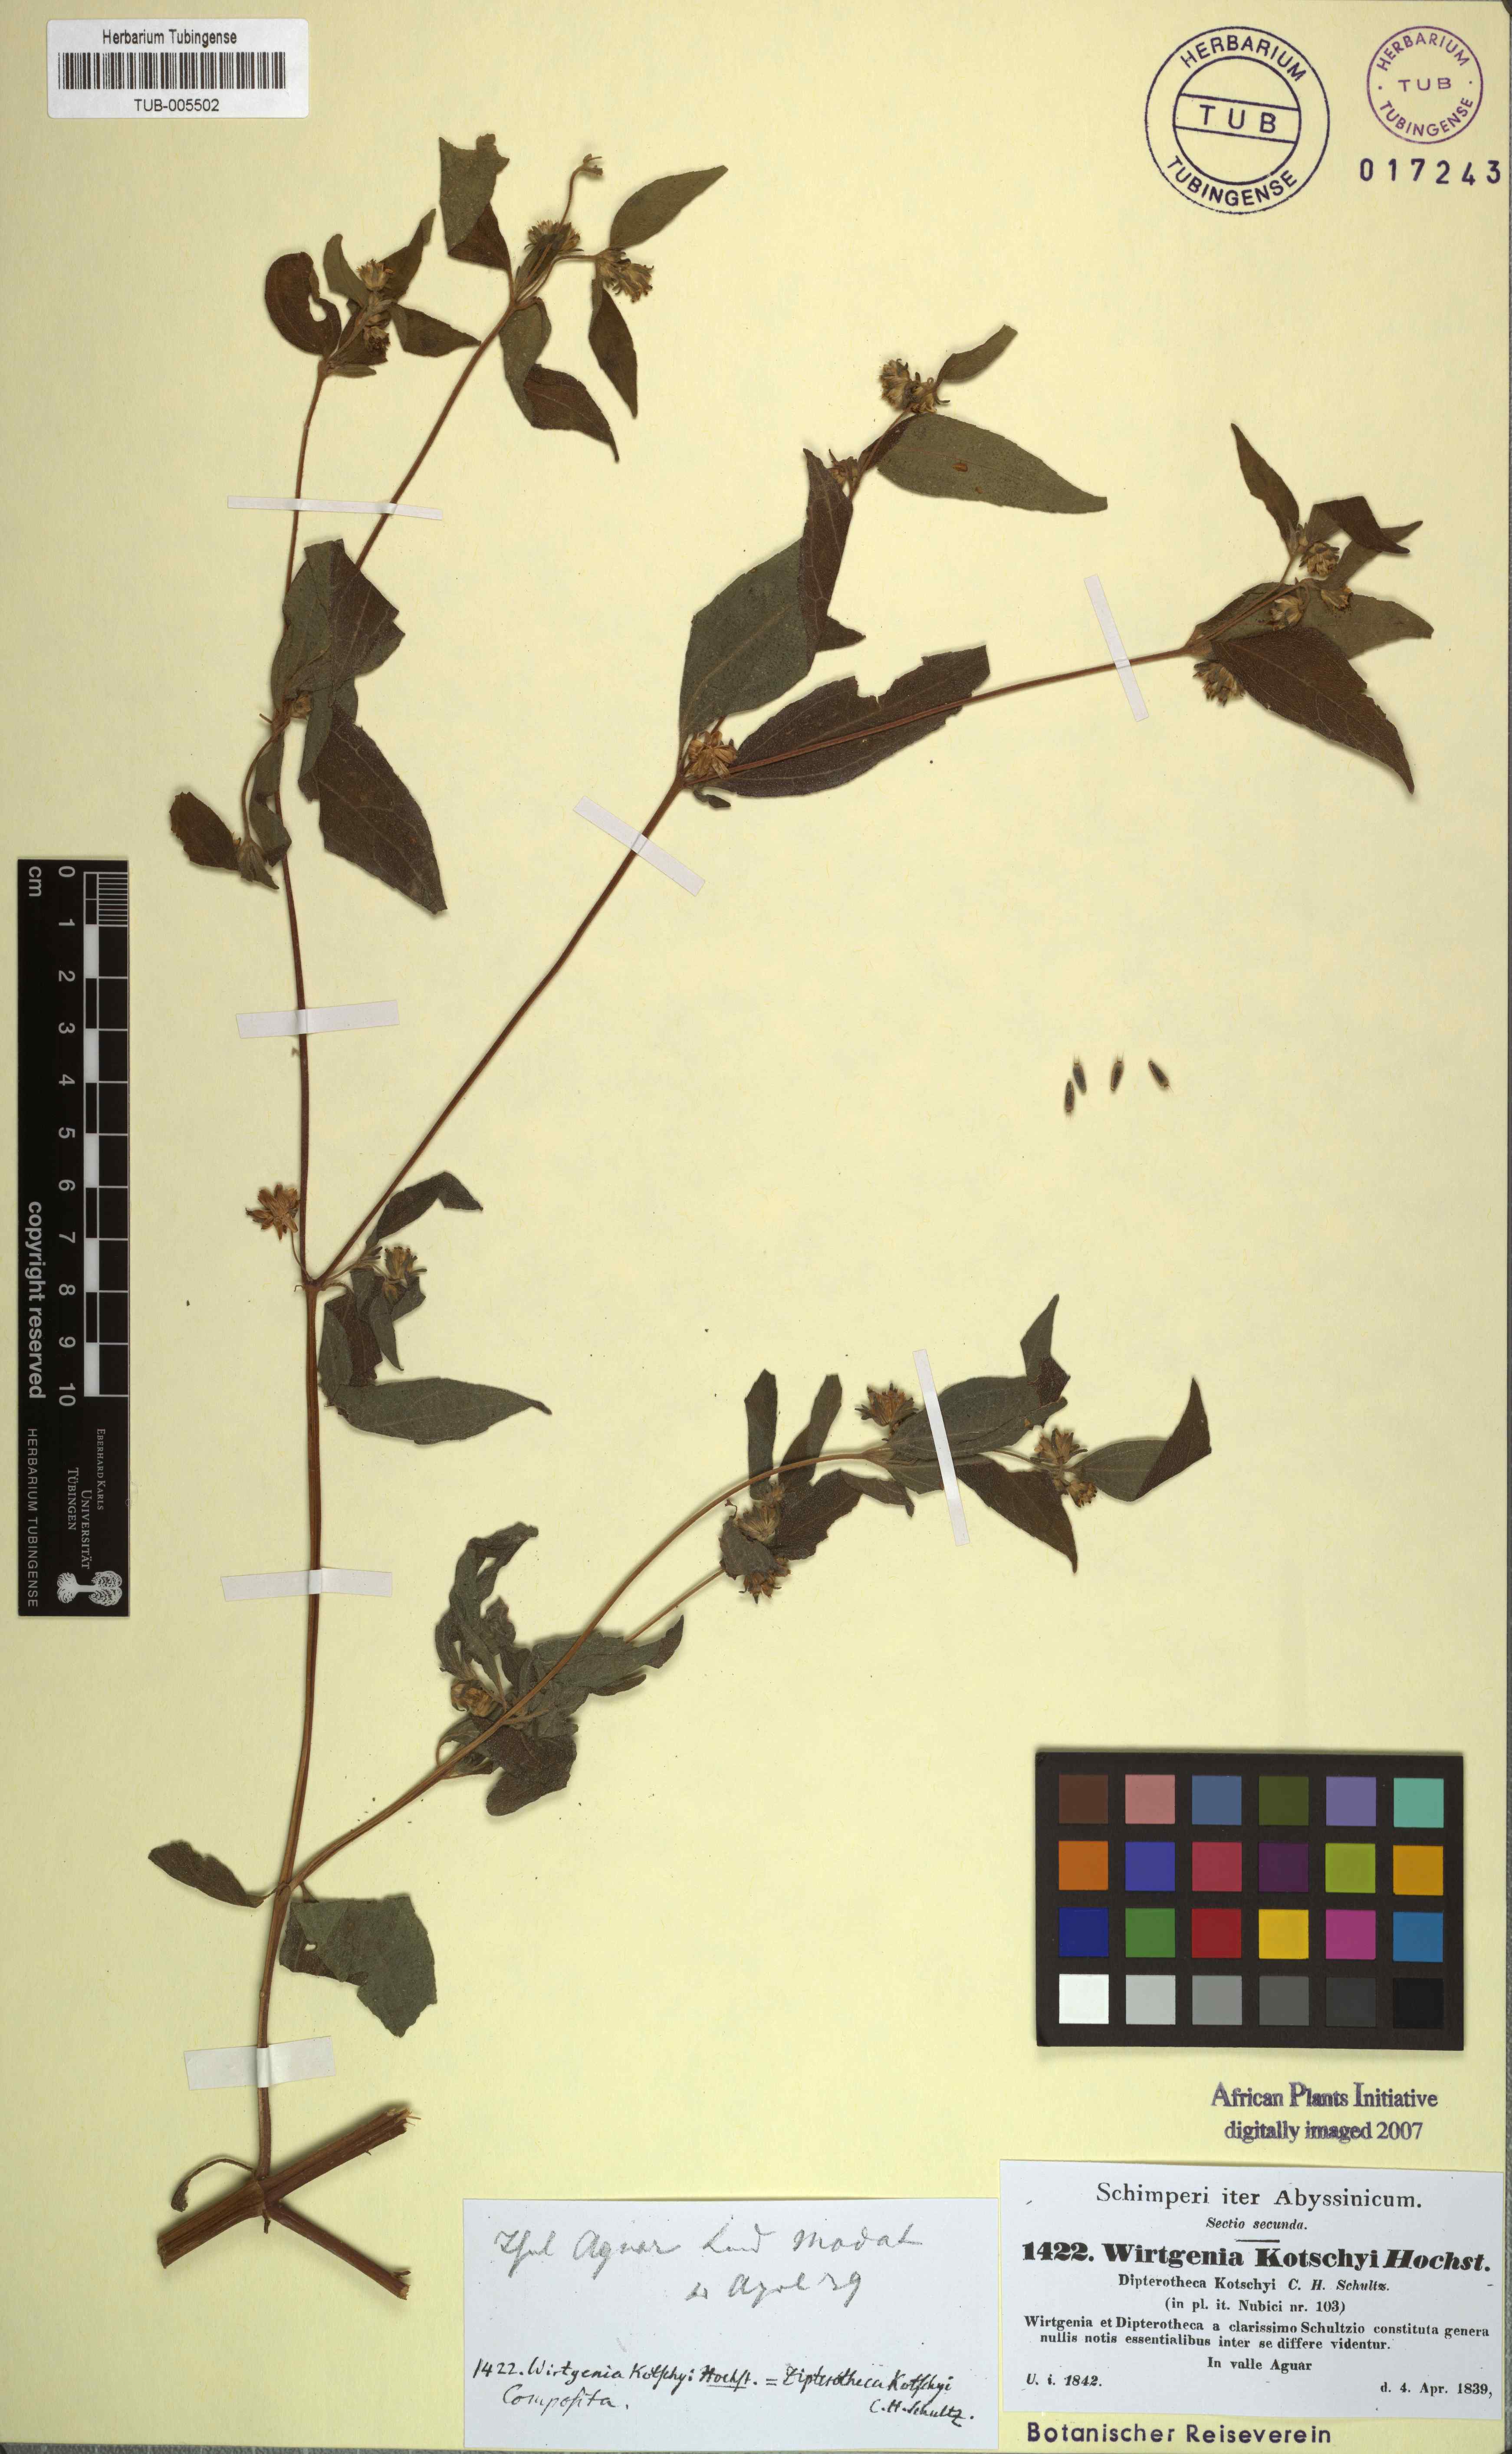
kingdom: Plantae
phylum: Tracheophyta
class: Magnoliopsida
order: Asterales
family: Asteraceae
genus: Aspilia
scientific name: Aspilia kotschyi
